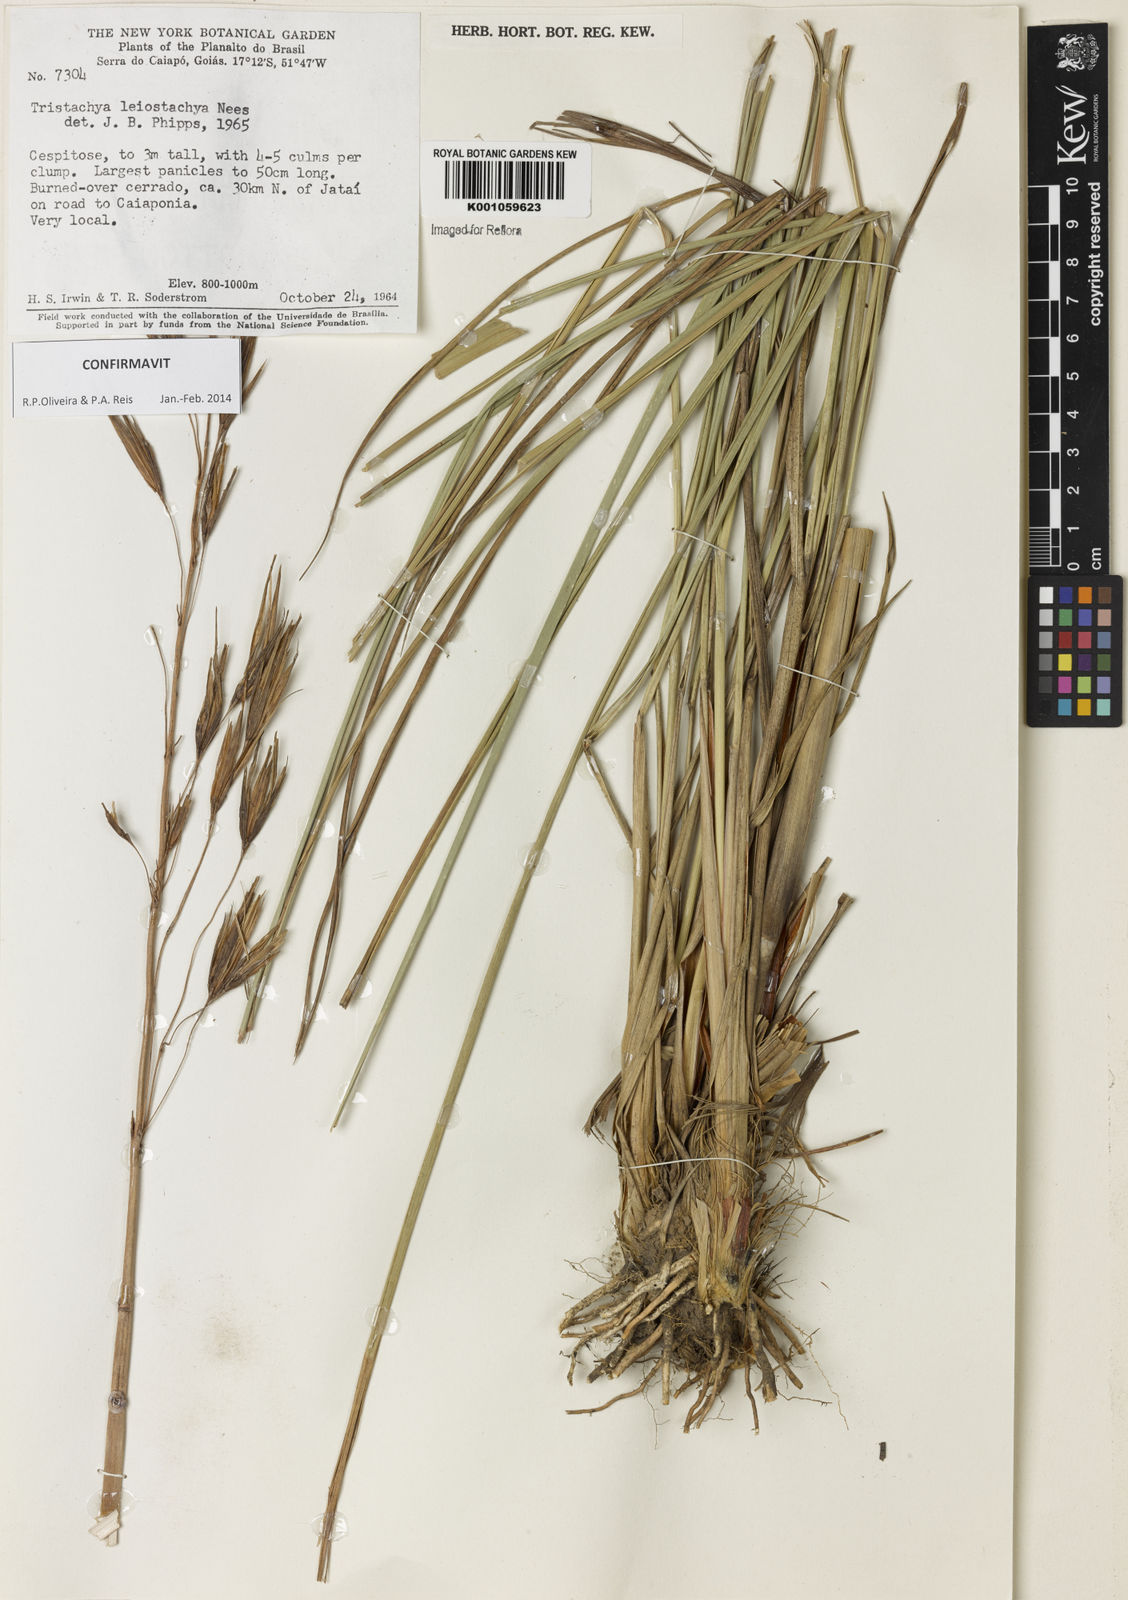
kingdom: Plantae
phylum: Tracheophyta
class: Liliopsida
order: Poales
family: Poaceae
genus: Tristachya
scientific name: Tristachya leiostachya
